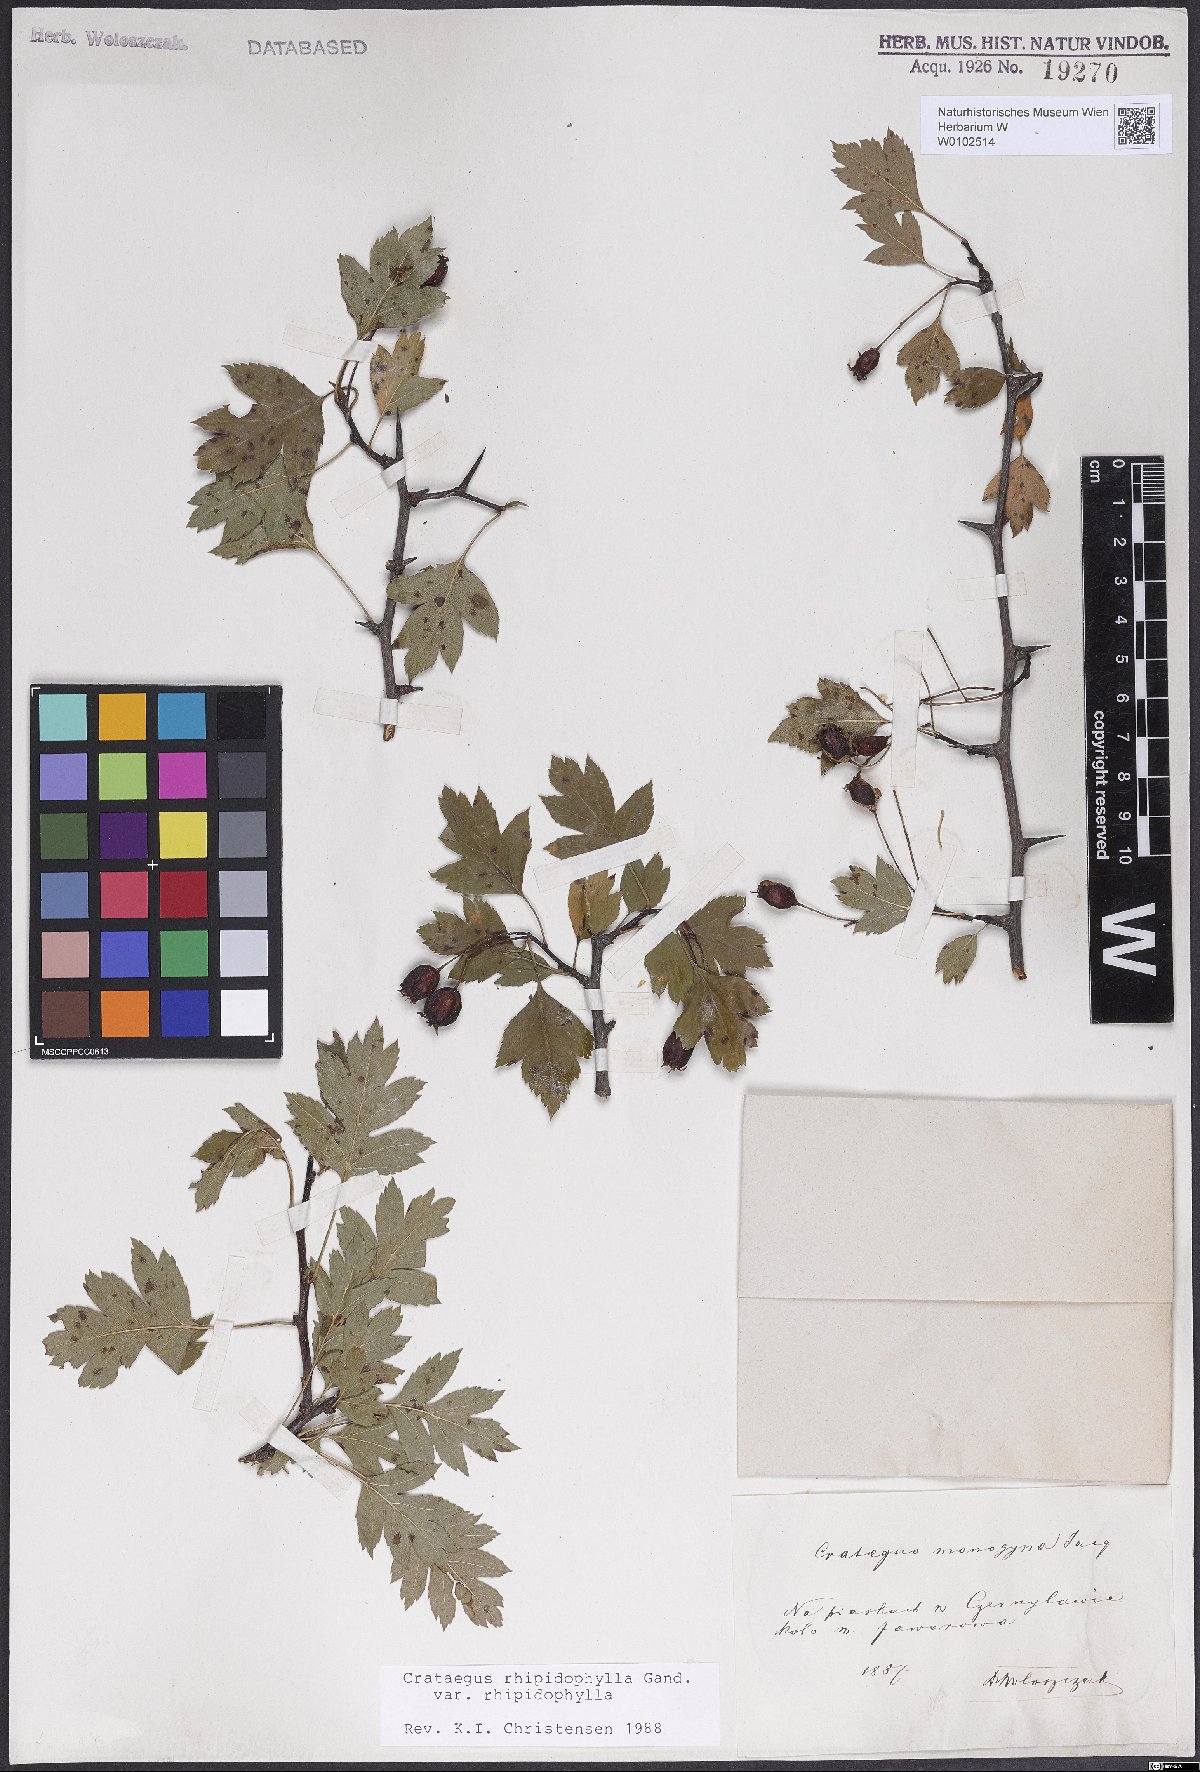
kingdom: Plantae
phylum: Tracheophyta
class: Magnoliopsida
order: Rosales
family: Rosaceae
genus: Crataegus
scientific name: Crataegus rhipidophylla
